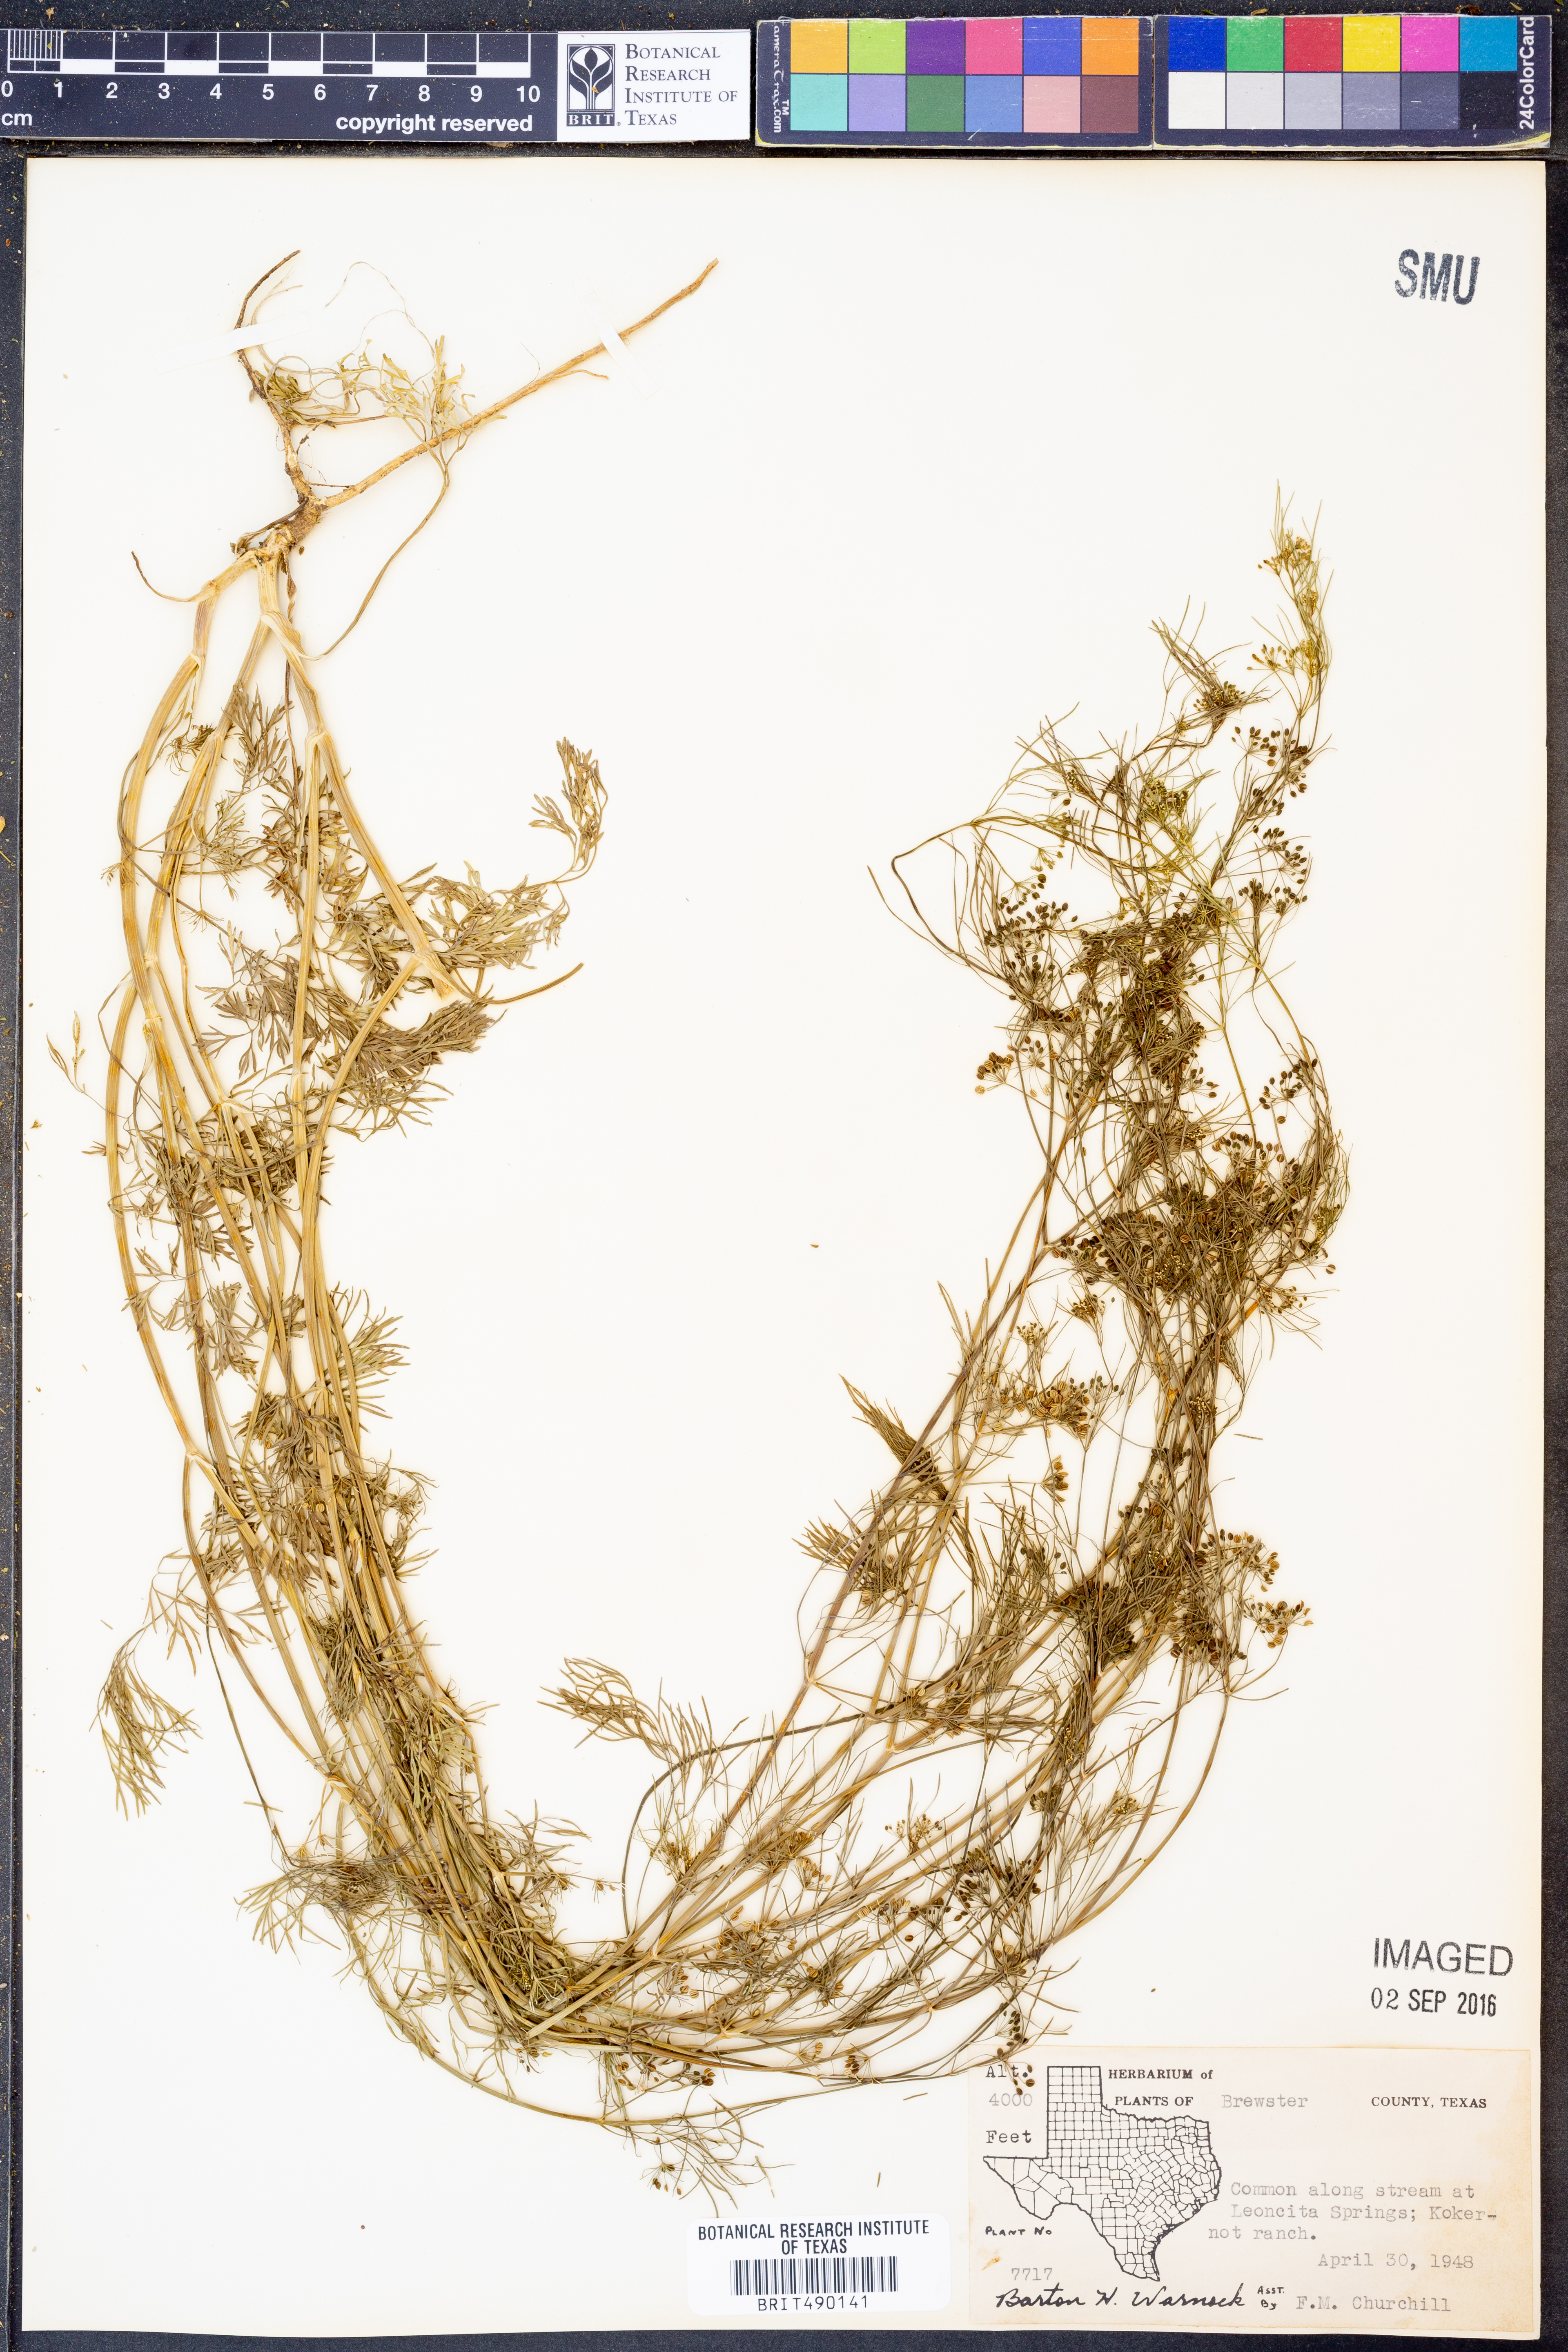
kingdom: Plantae
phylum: Tracheophyta
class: Magnoliopsida
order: Apiales
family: Apiaceae
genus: Cyclospermum
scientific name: Cyclospermum leptophyllum
